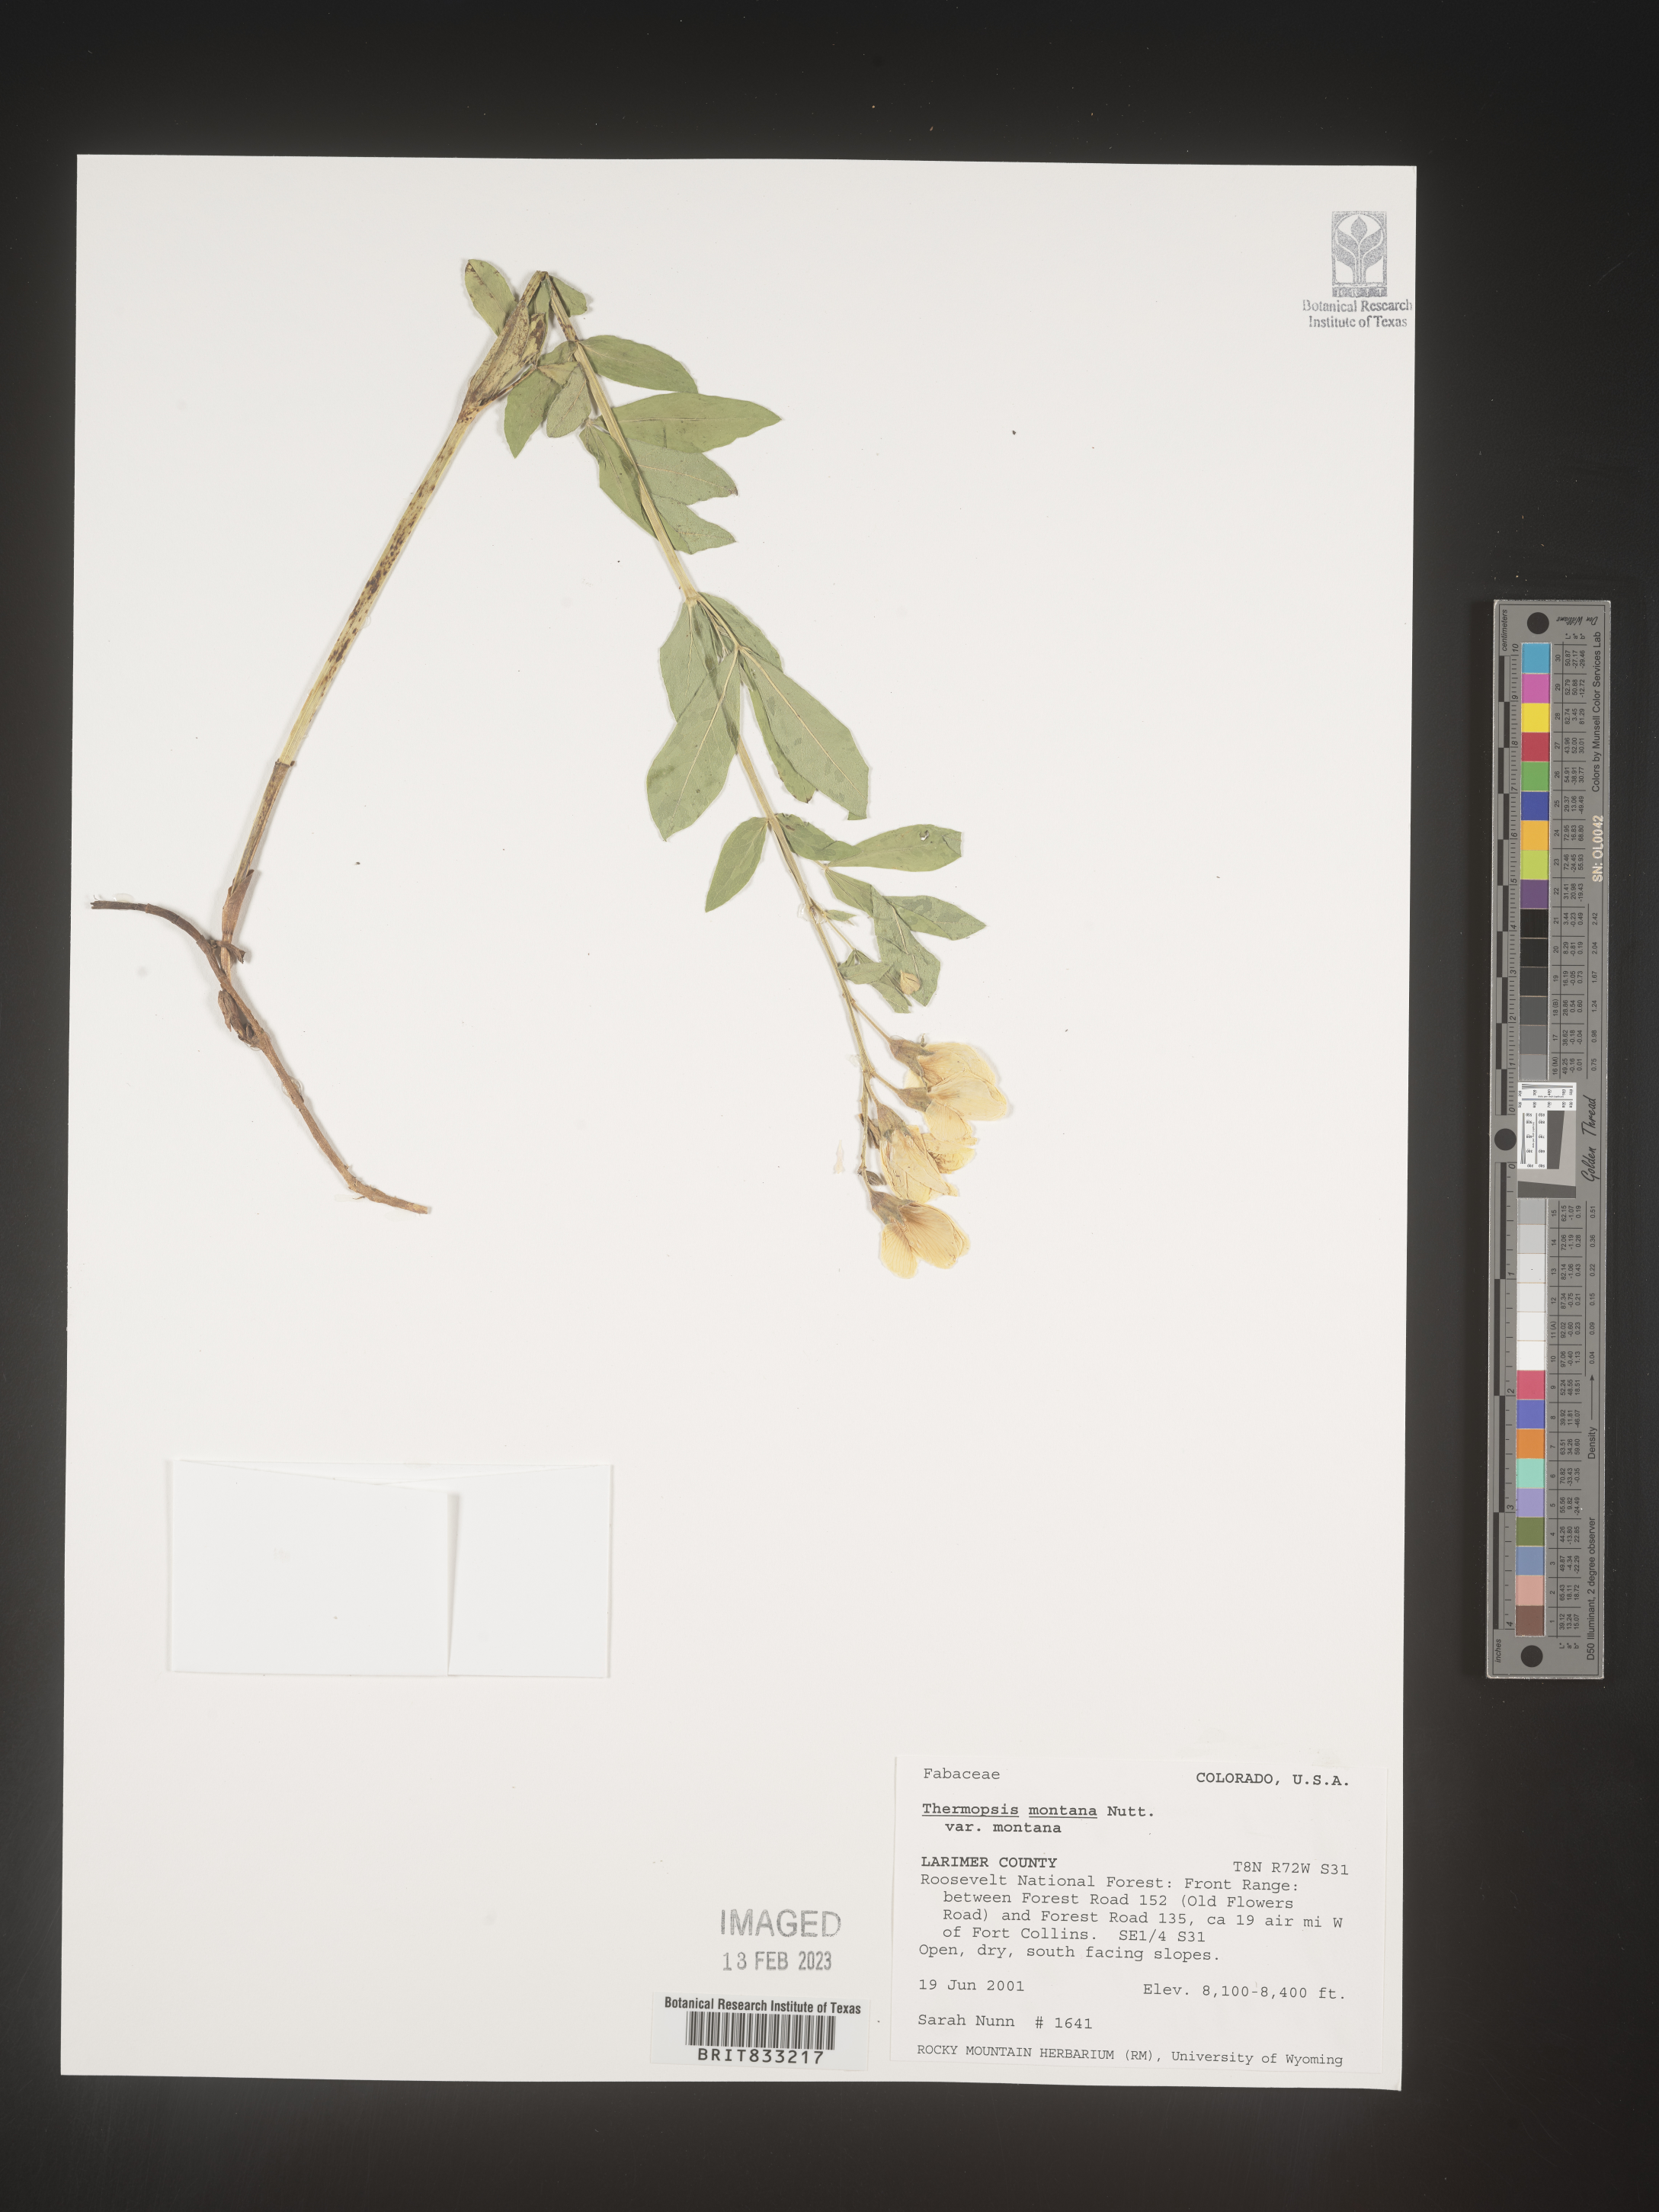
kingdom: Plantae
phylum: Tracheophyta
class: Magnoliopsida
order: Fabales
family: Fabaceae
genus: Thermopsis
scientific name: Thermopsis montana
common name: False lupin
